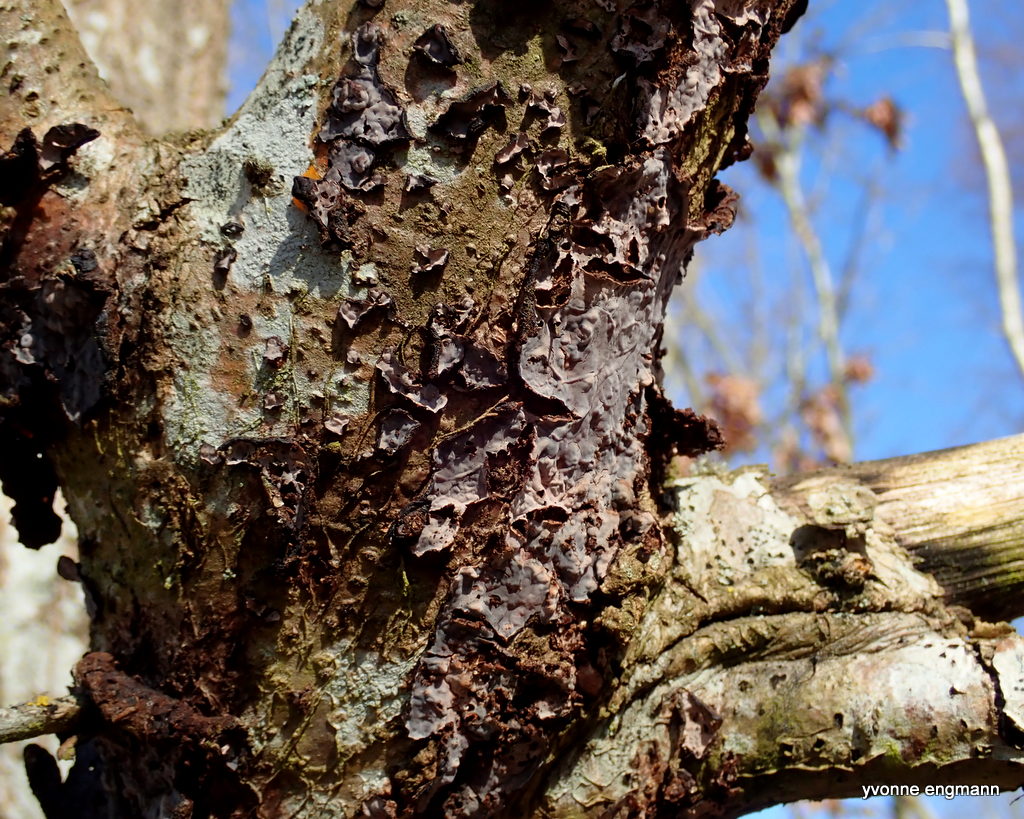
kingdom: Fungi
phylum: Basidiomycota
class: Agaricomycetes
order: Russulales
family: Peniophoraceae
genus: Peniophora
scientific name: Peniophora quercina
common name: ege-voksskind
